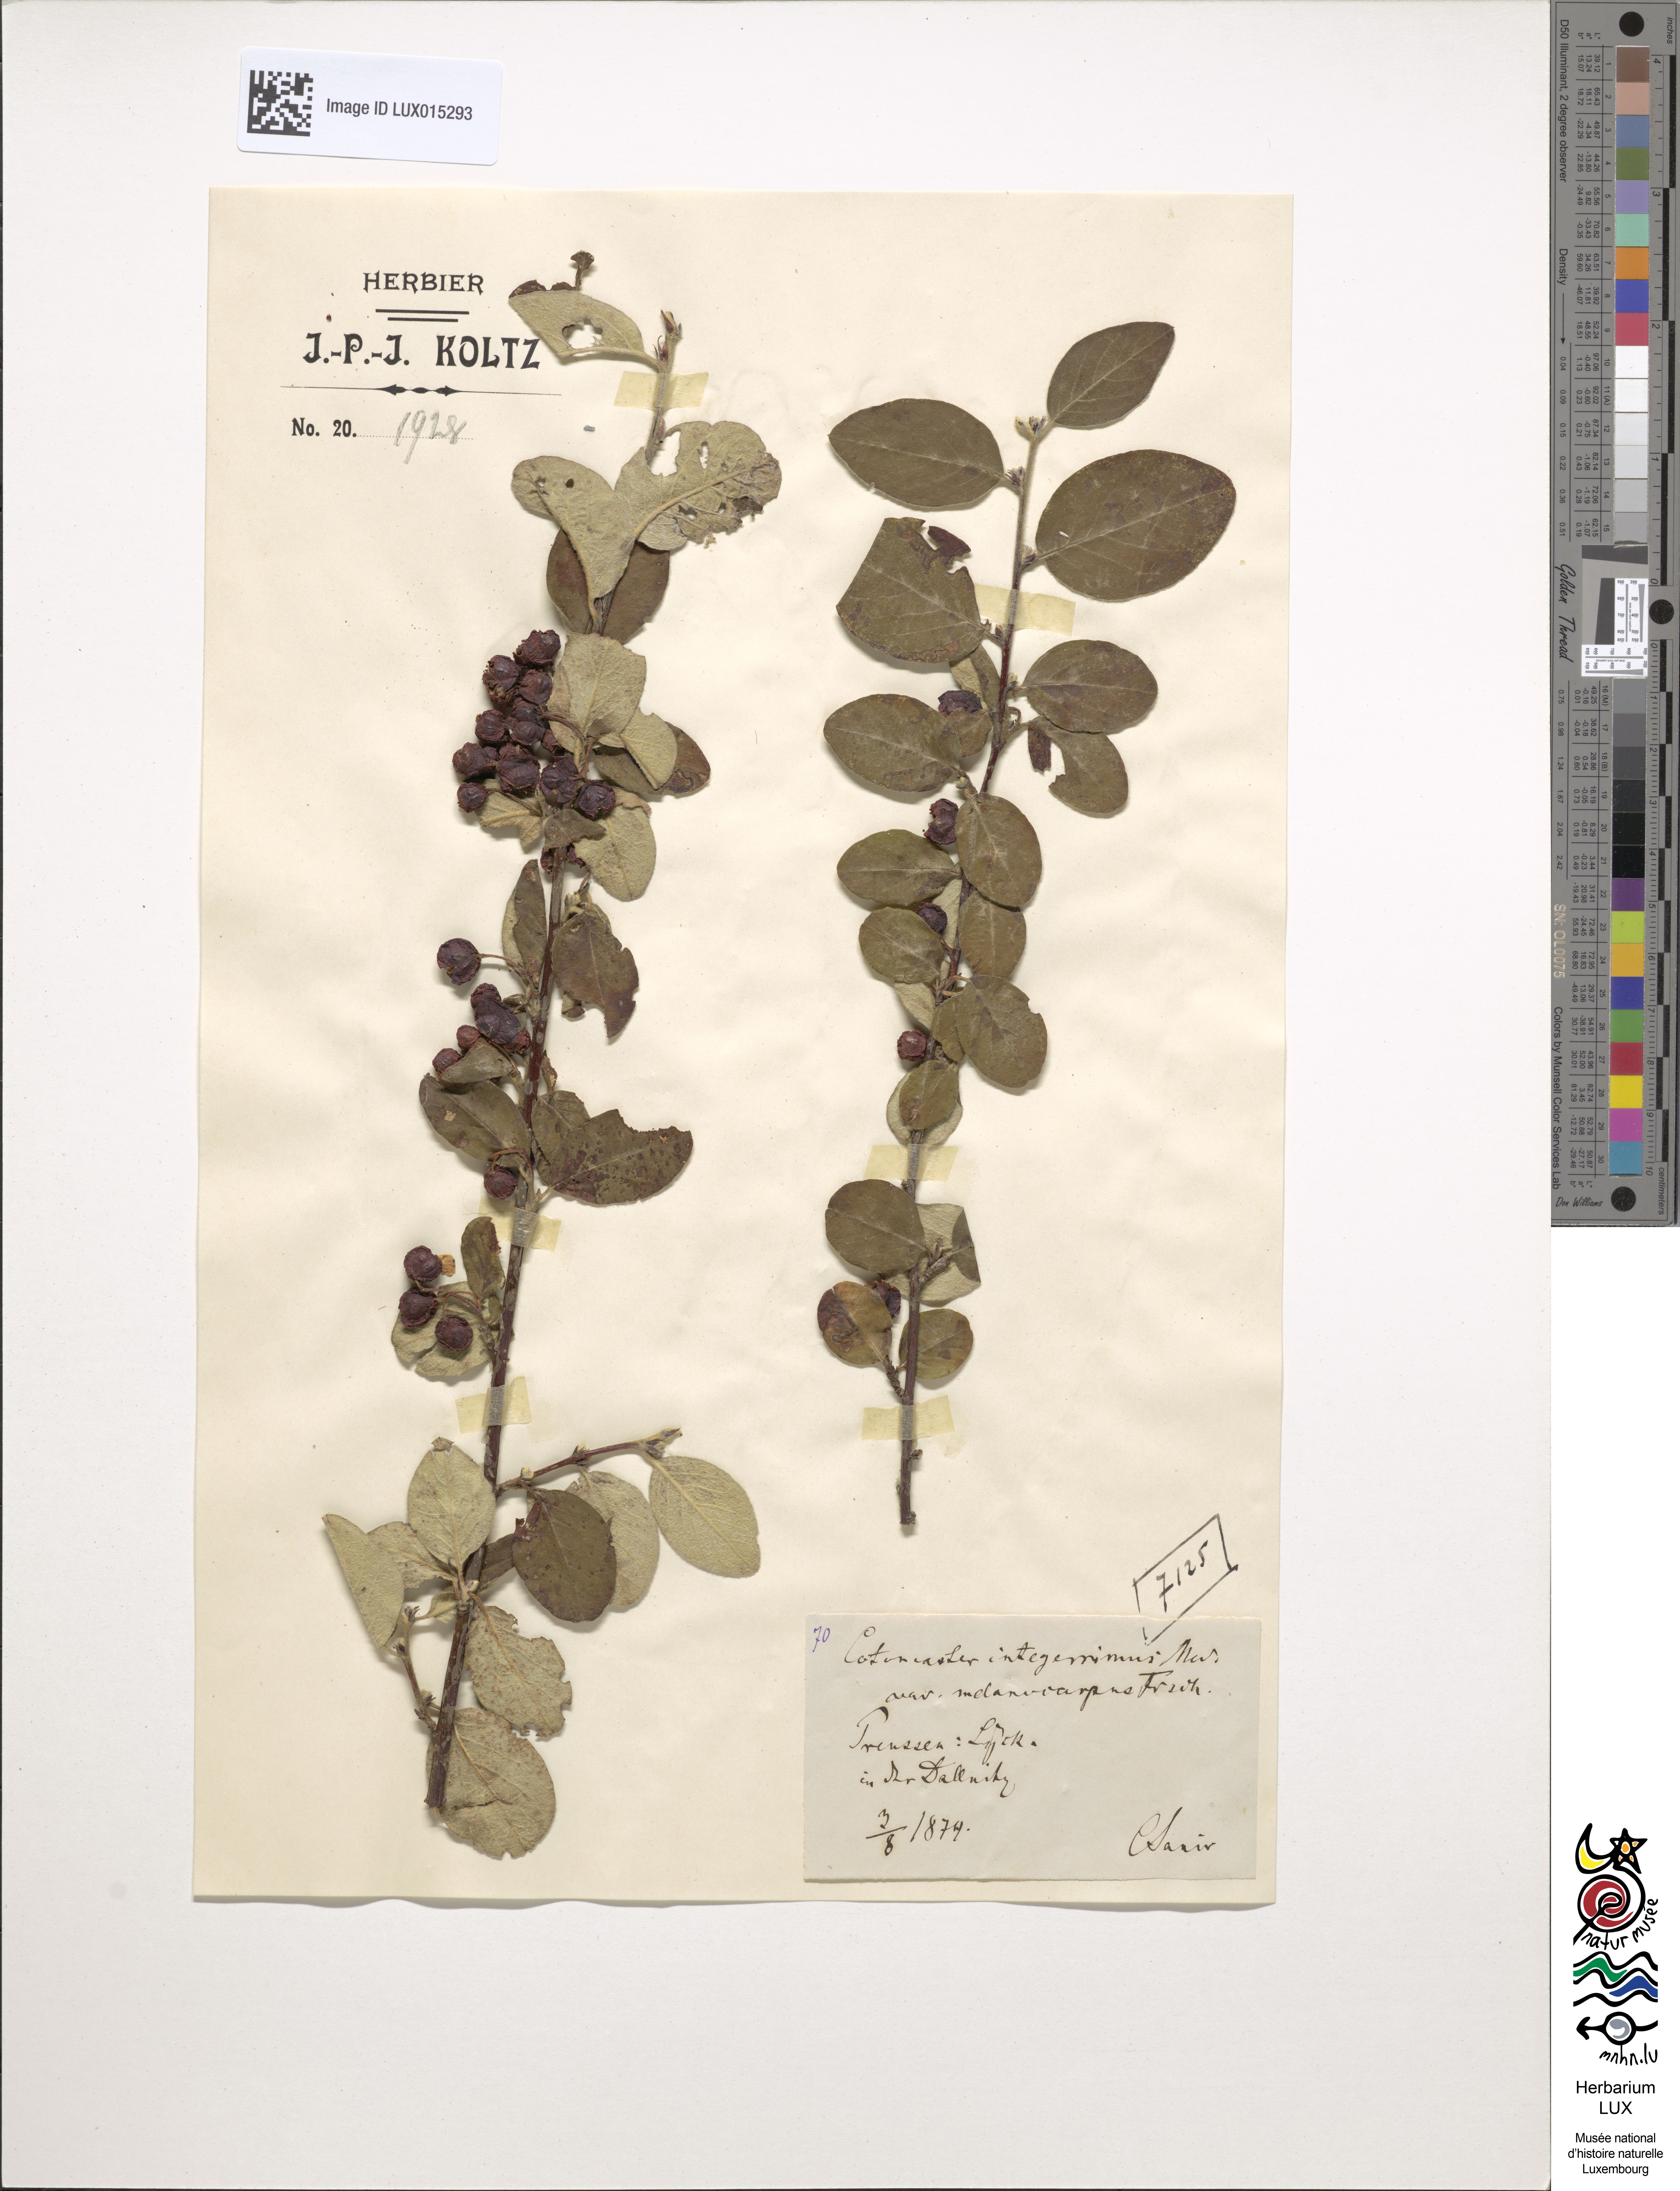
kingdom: Plantae
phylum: Tracheophyta
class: Magnoliopsida
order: Rosales
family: Rosaceae
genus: Cotoneaster
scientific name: Cotoneaster integerrimus
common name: Wild cotoneaster
